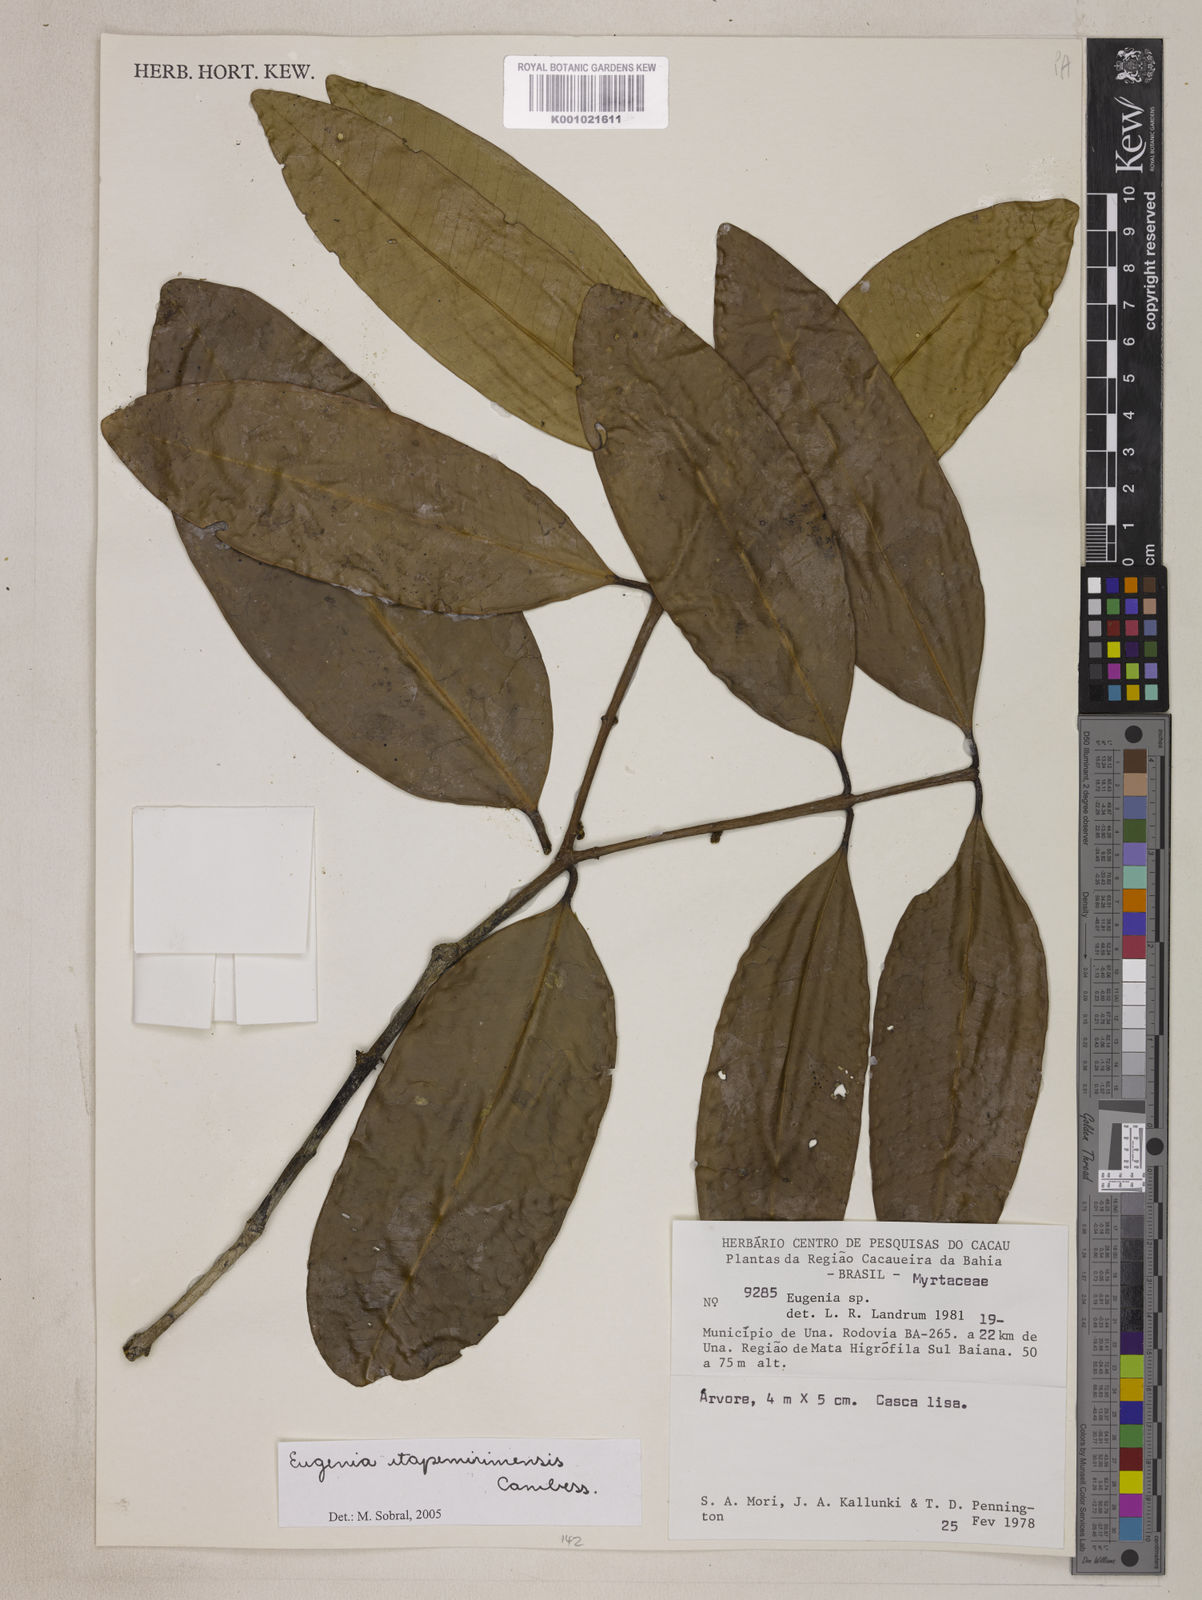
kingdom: Plantae
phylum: Tracheophyta
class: Magnoliopsida
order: Myrtales
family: Myrtaceae
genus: Eugenia
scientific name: Eugenia itapemirimensis
